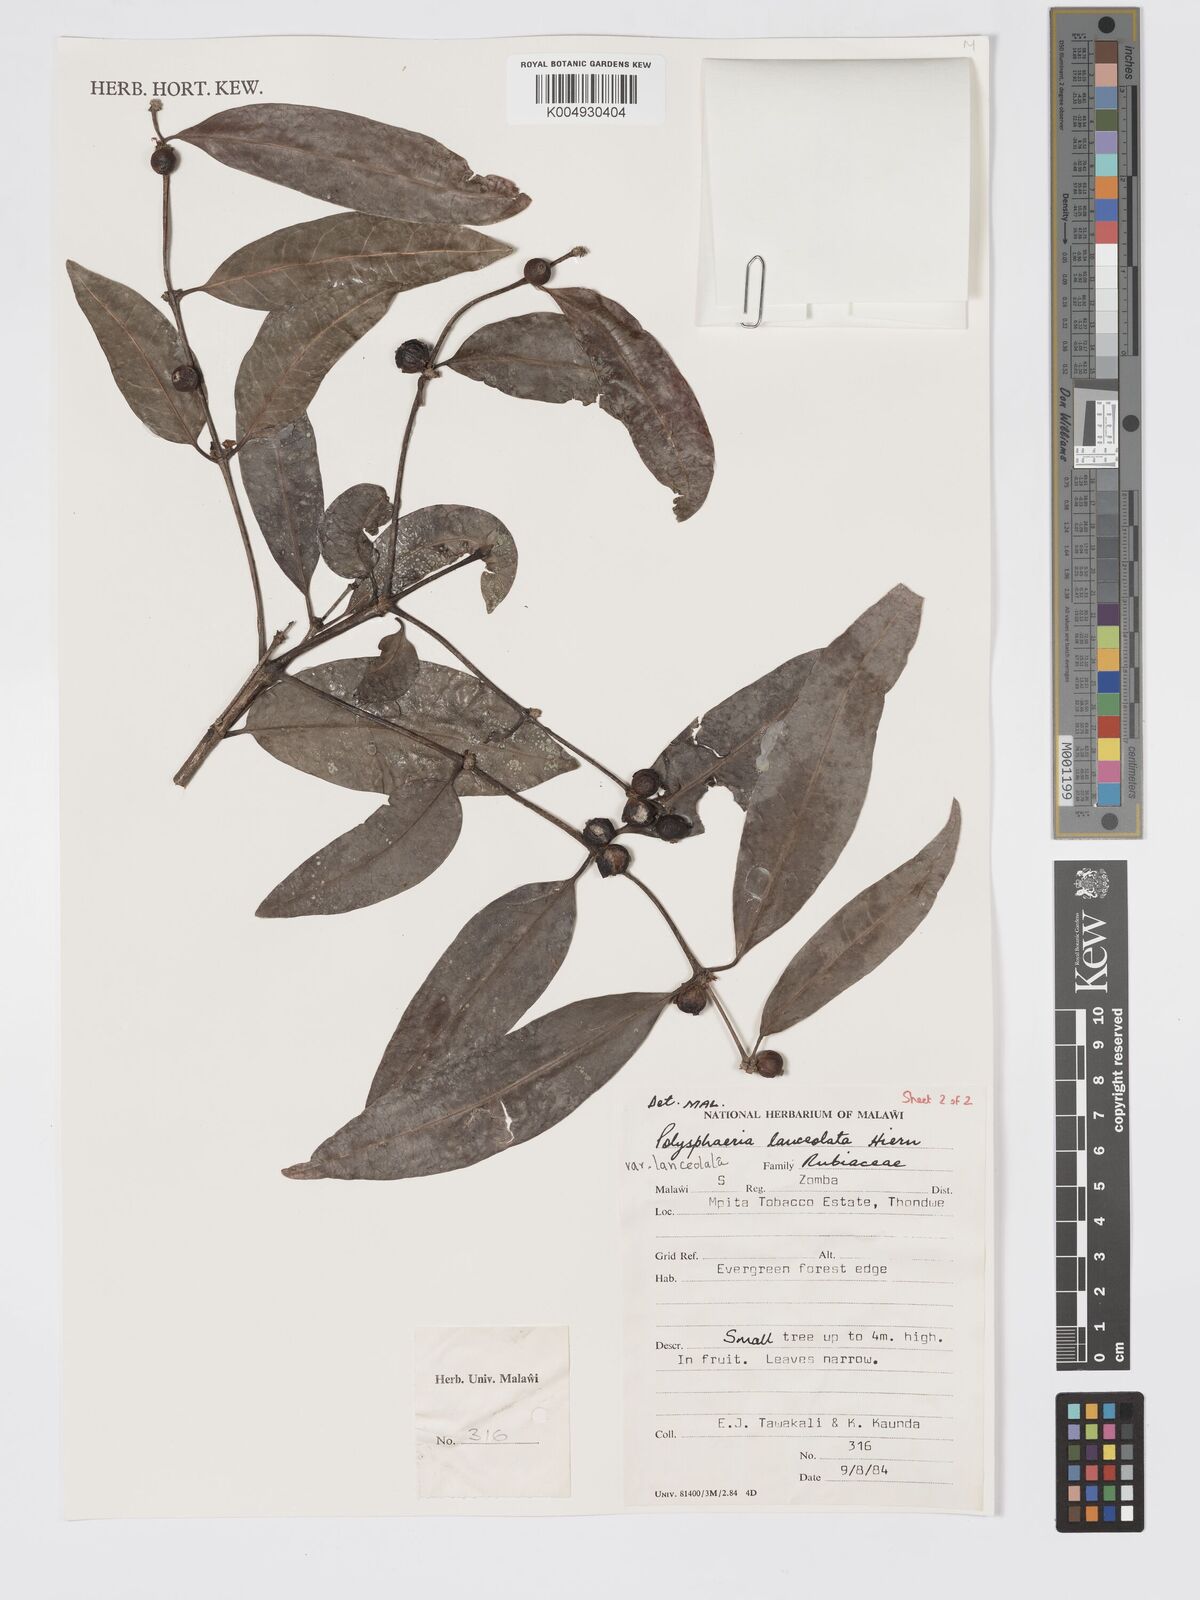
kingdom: Plantae
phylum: Tracheophyta
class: Magnoliopsida
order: Gentianales
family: Rubiaceae
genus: Polysphaeria
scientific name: Polysphaeria lanceolata
